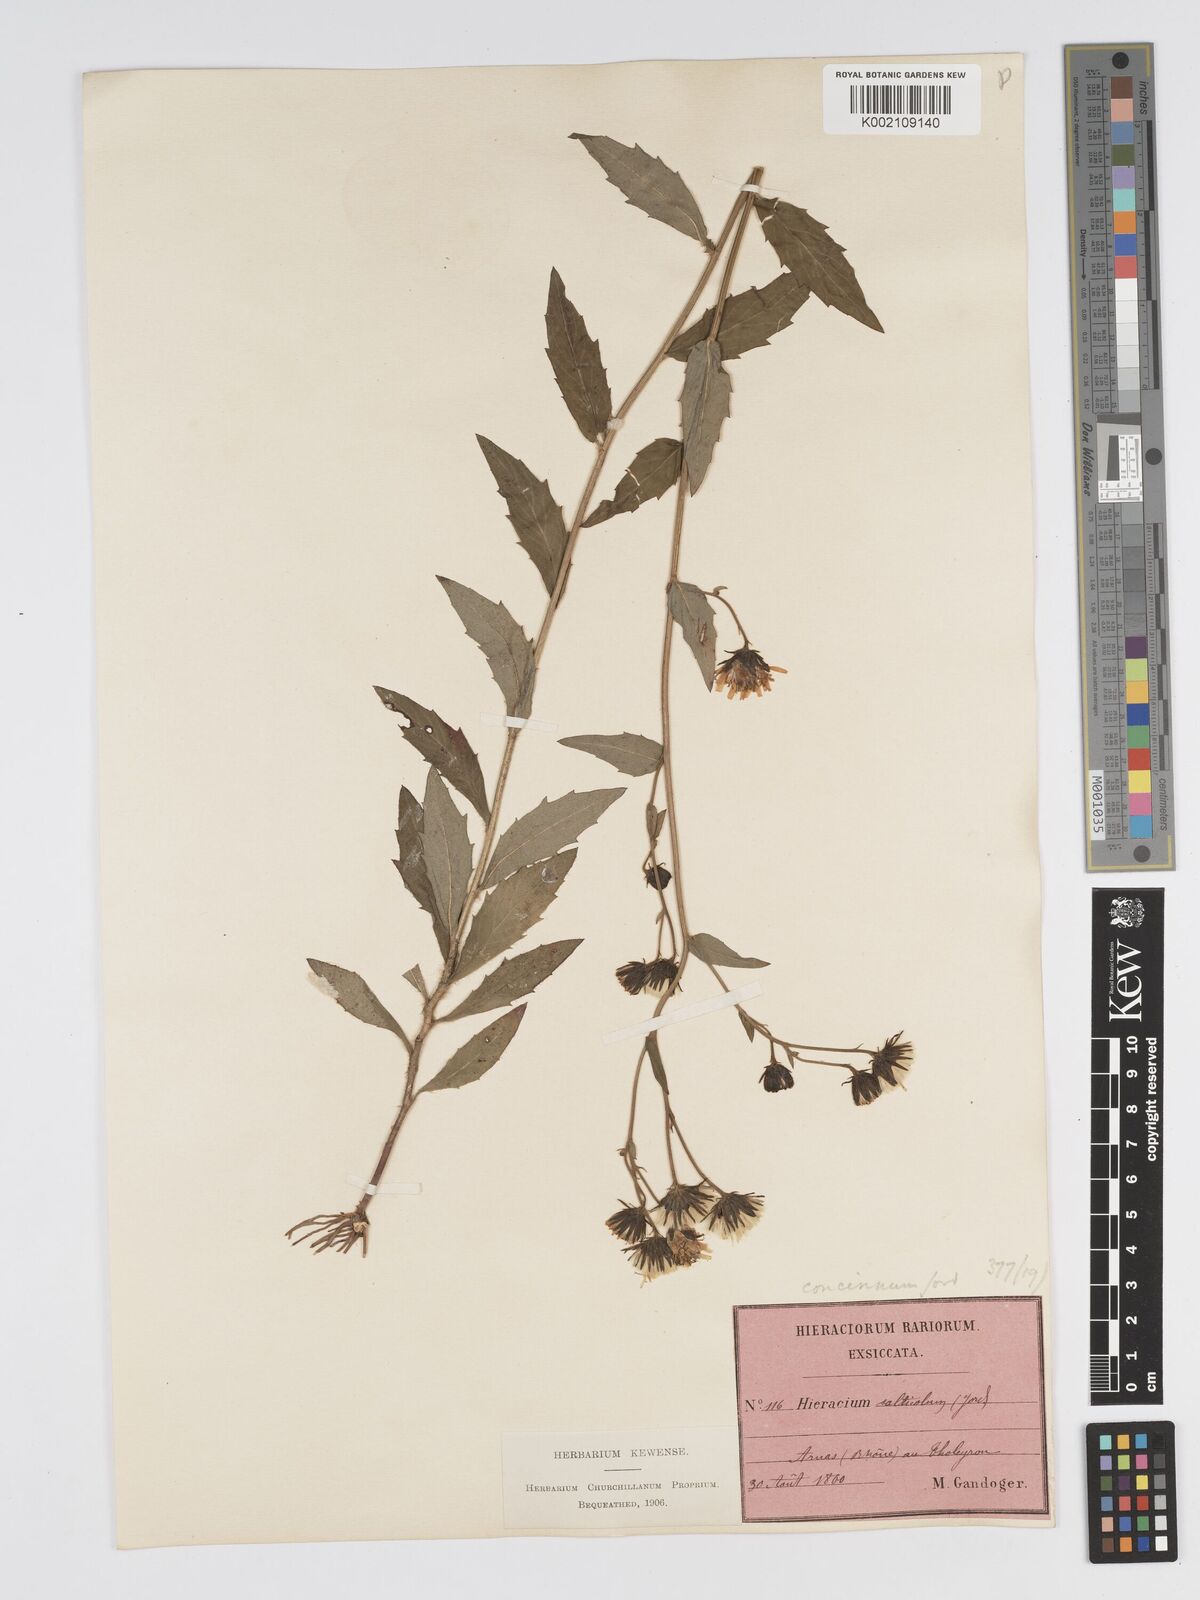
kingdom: Plantae
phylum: Tracheophyta
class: Magnoliopsida
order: Asterales
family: Asteraceae
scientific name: Asteraceae
